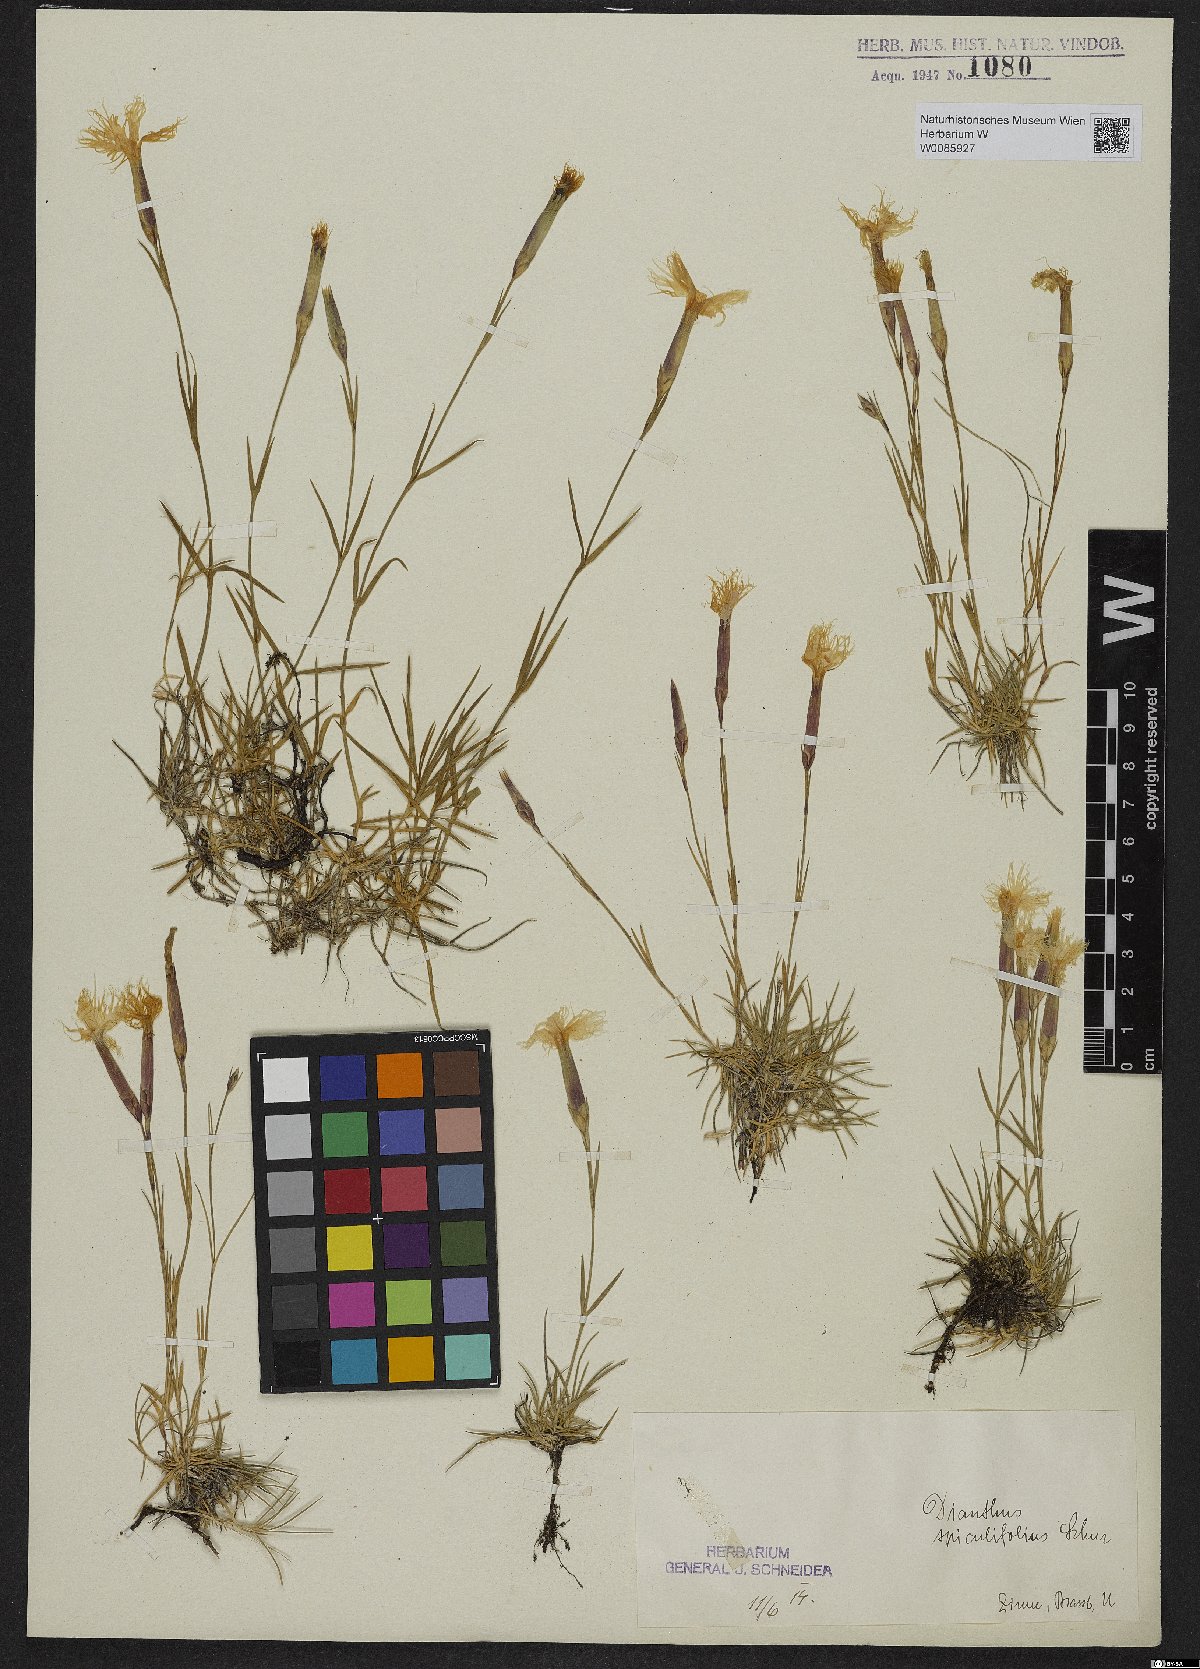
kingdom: Plantae
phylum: Tracheophyta
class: Magnoliopsida
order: Caryophyllales
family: Caryophyllaceae
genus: Dianthus
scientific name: Dianthus spiculifolius
